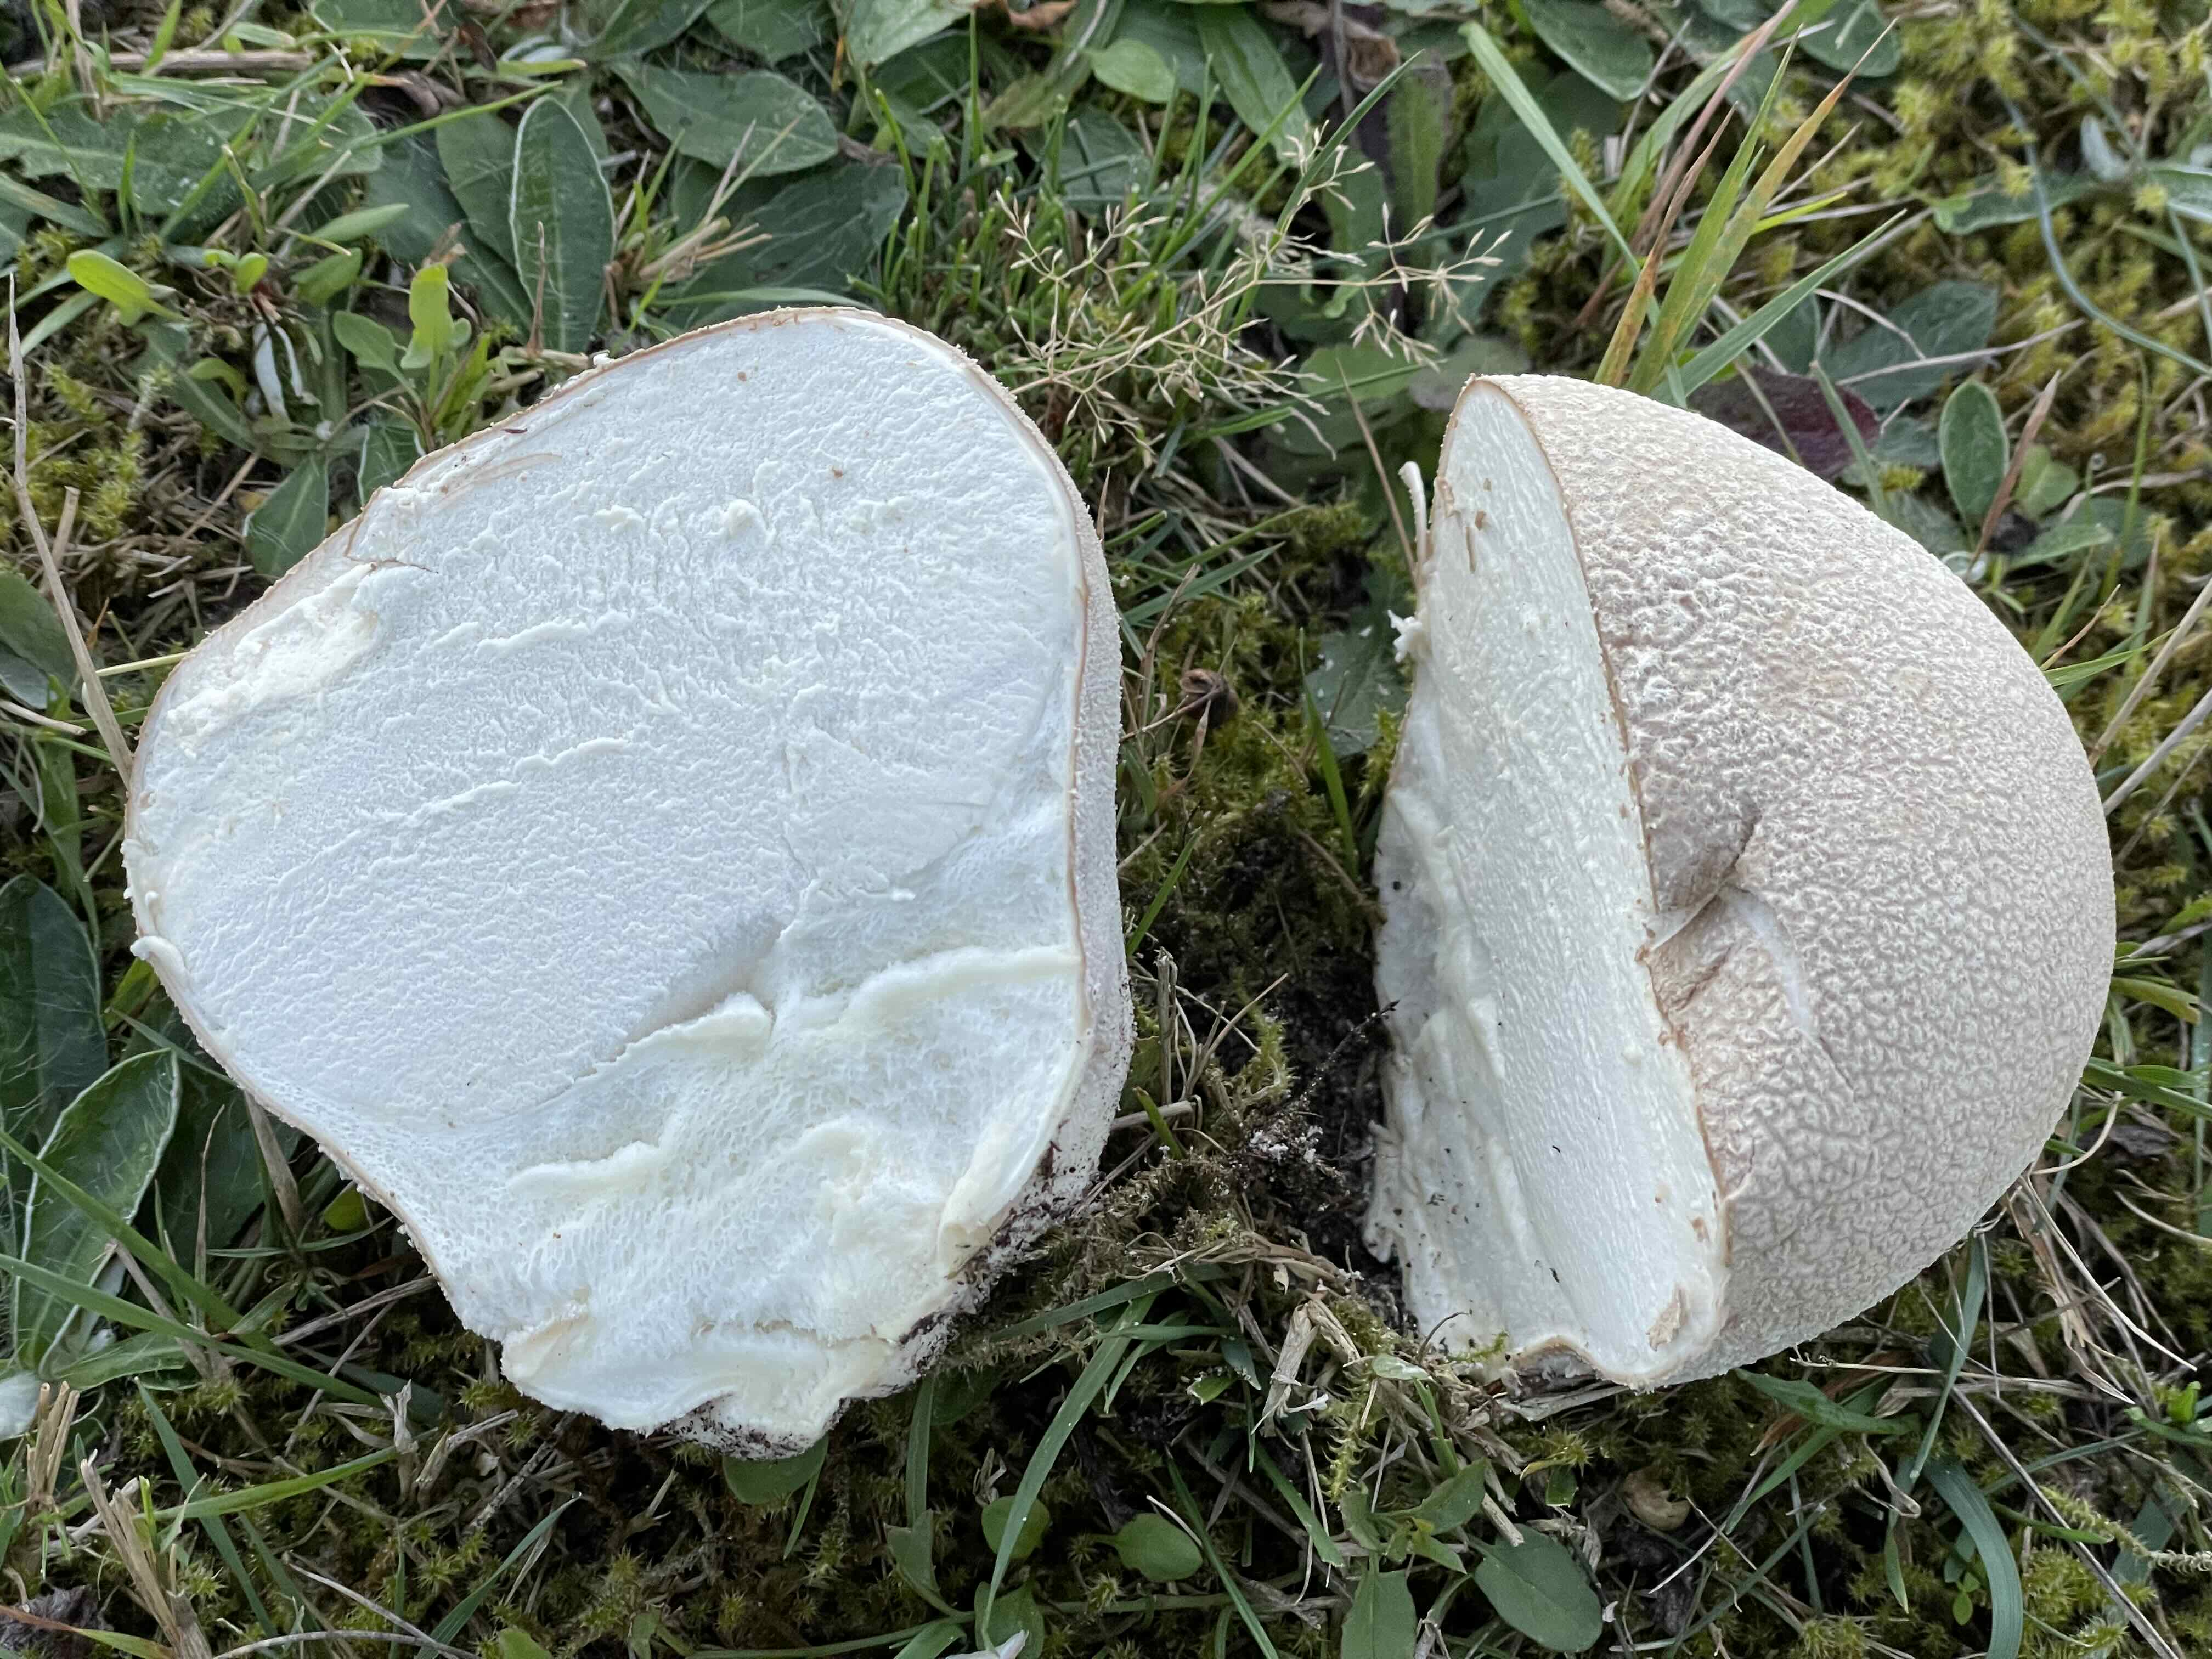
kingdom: Fungi
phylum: Basidiomycota
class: Agaricomycetes
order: Agaricales
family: Lycoperdaceae
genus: Bovistella
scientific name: Bovistella utriformis
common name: skællet støvbold
